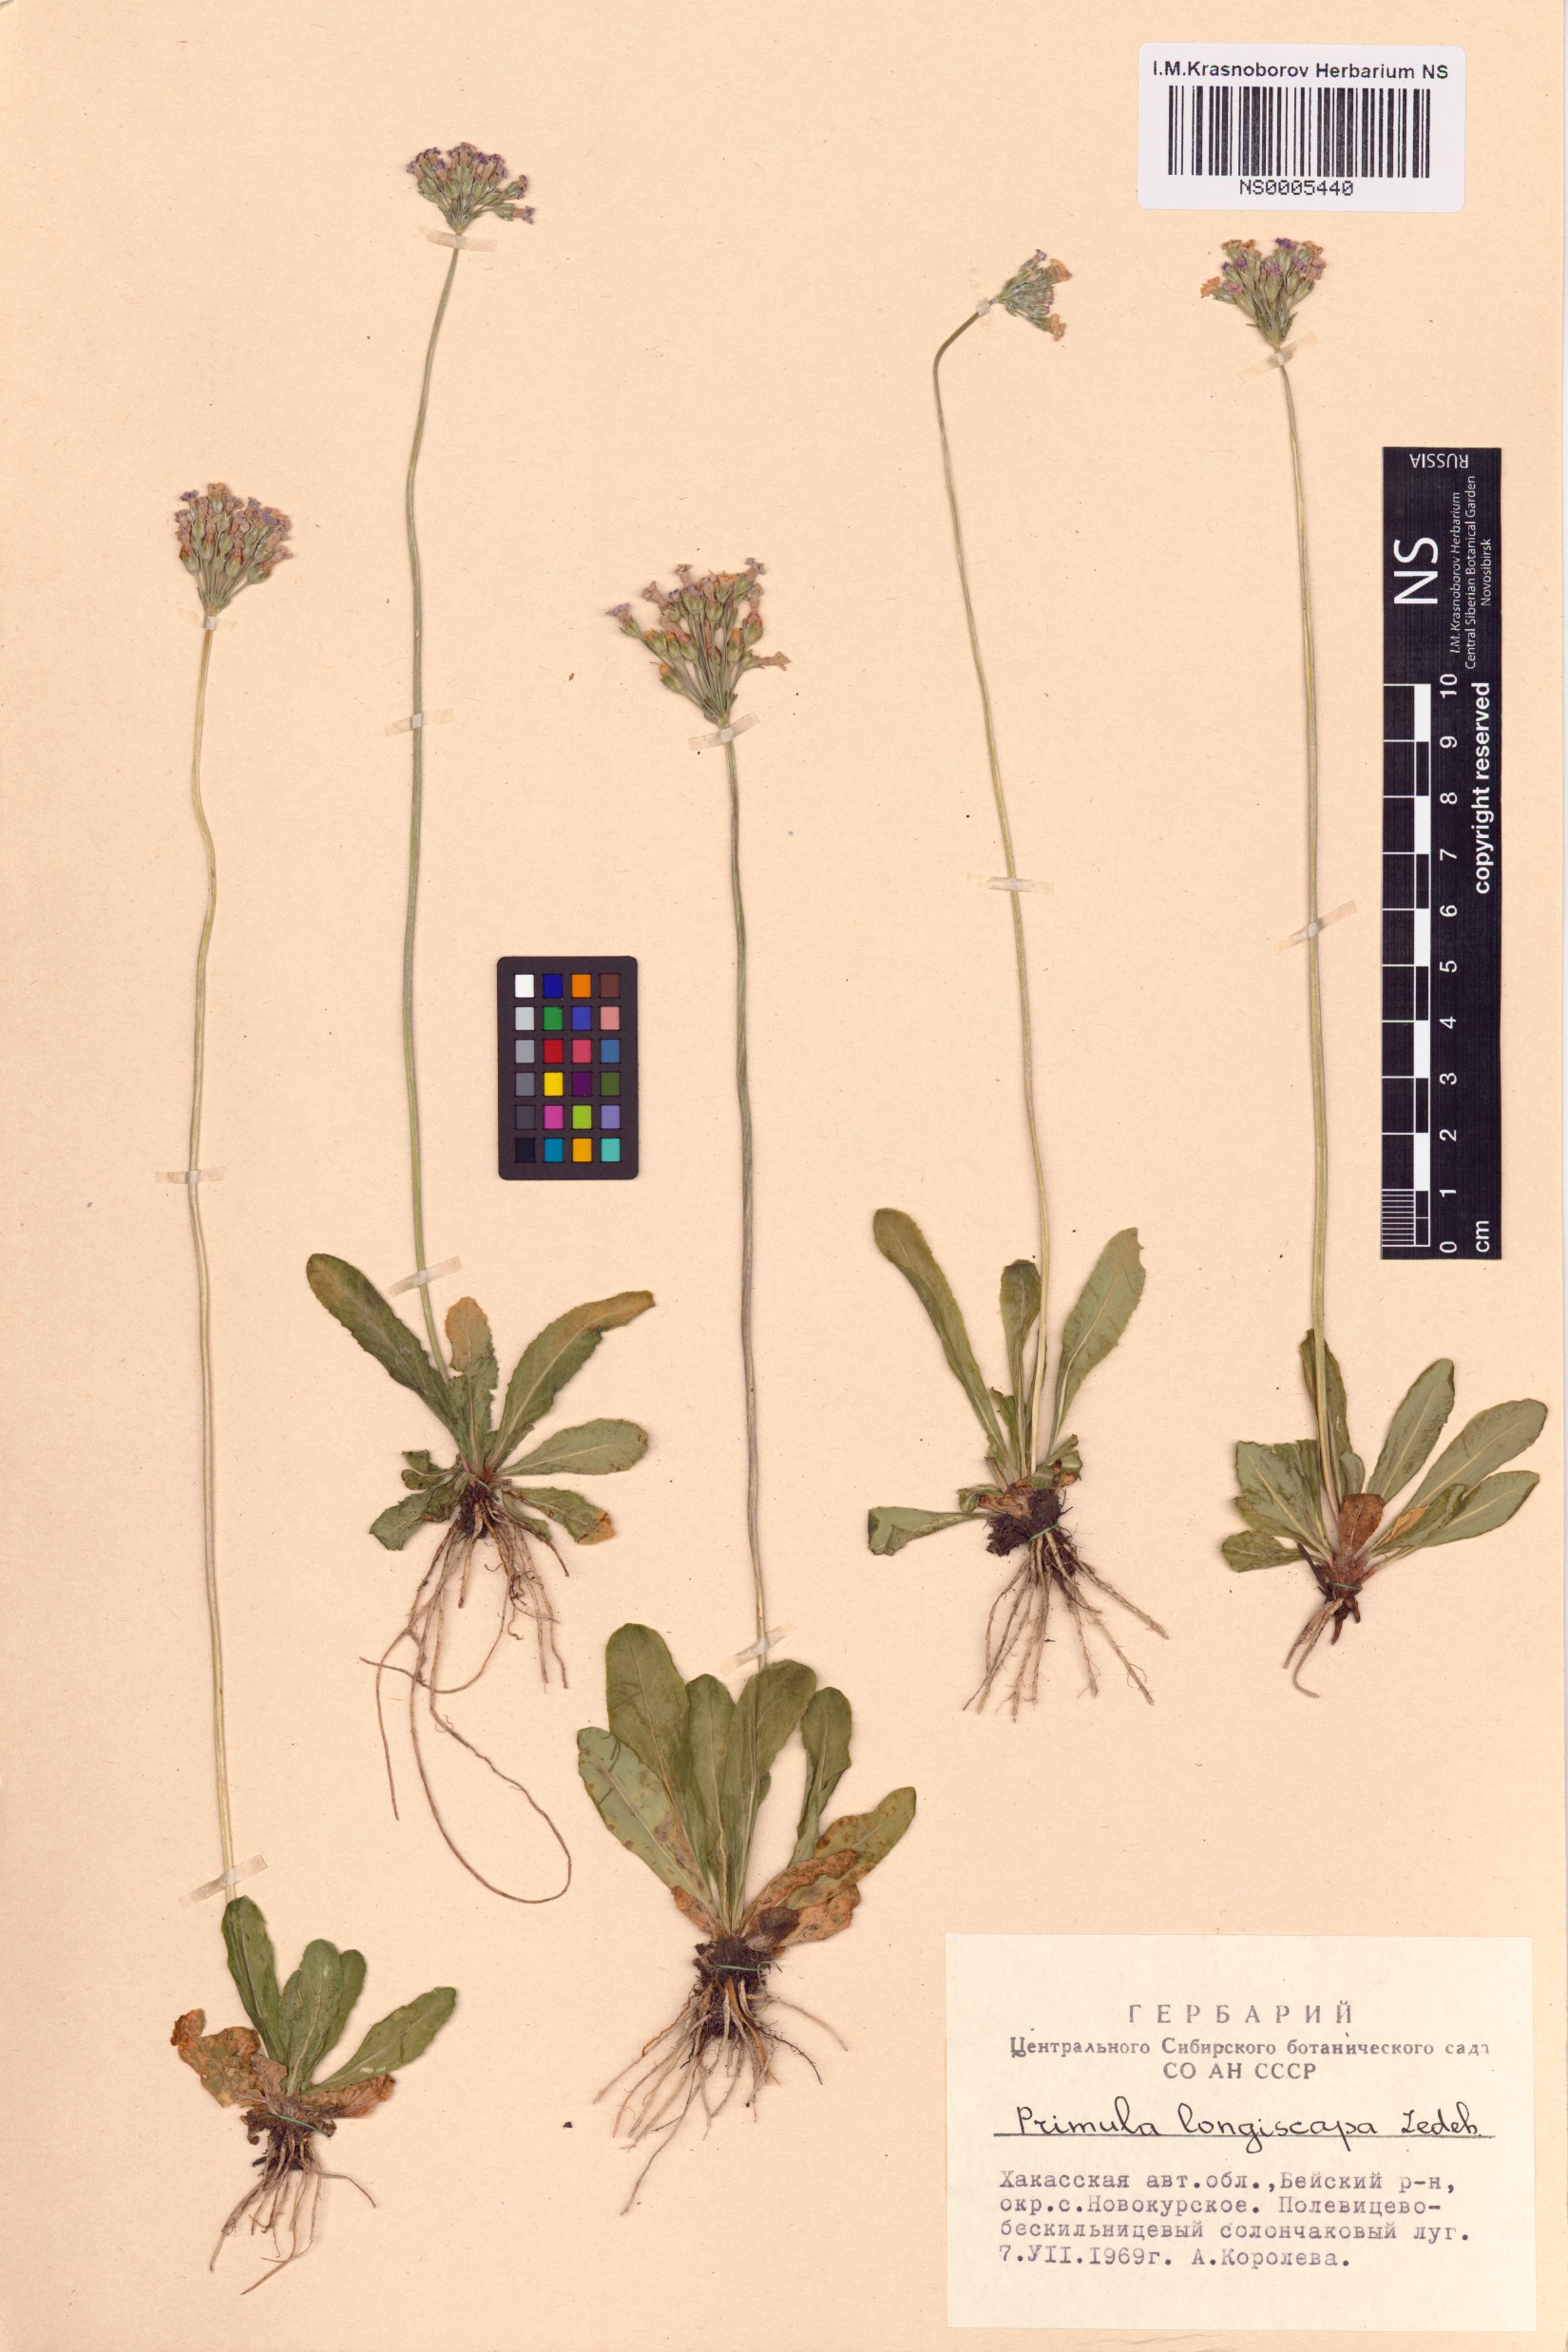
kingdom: Plantae
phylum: Tracheophyta
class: Magnoliopsida
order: Ericales
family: Primulaceae
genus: Primula
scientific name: Primula longiscapa
